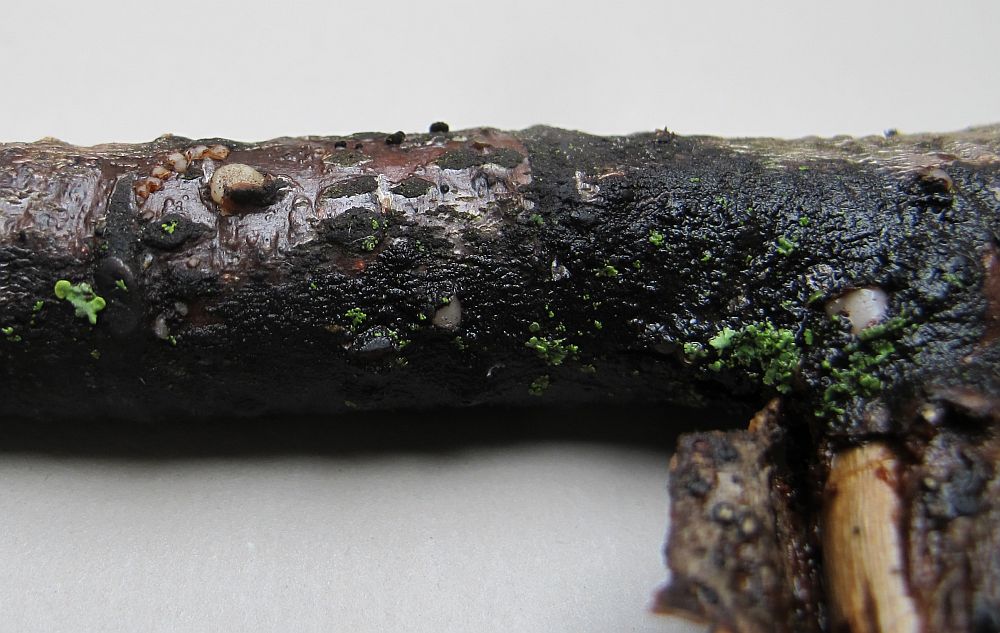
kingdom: Fungi
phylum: Basidiomycota
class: Pucciniomycetes
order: Platygloeales
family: Platygloeaceae
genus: Platygloea
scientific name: Platygloea disciformis
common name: linde-slimklat
